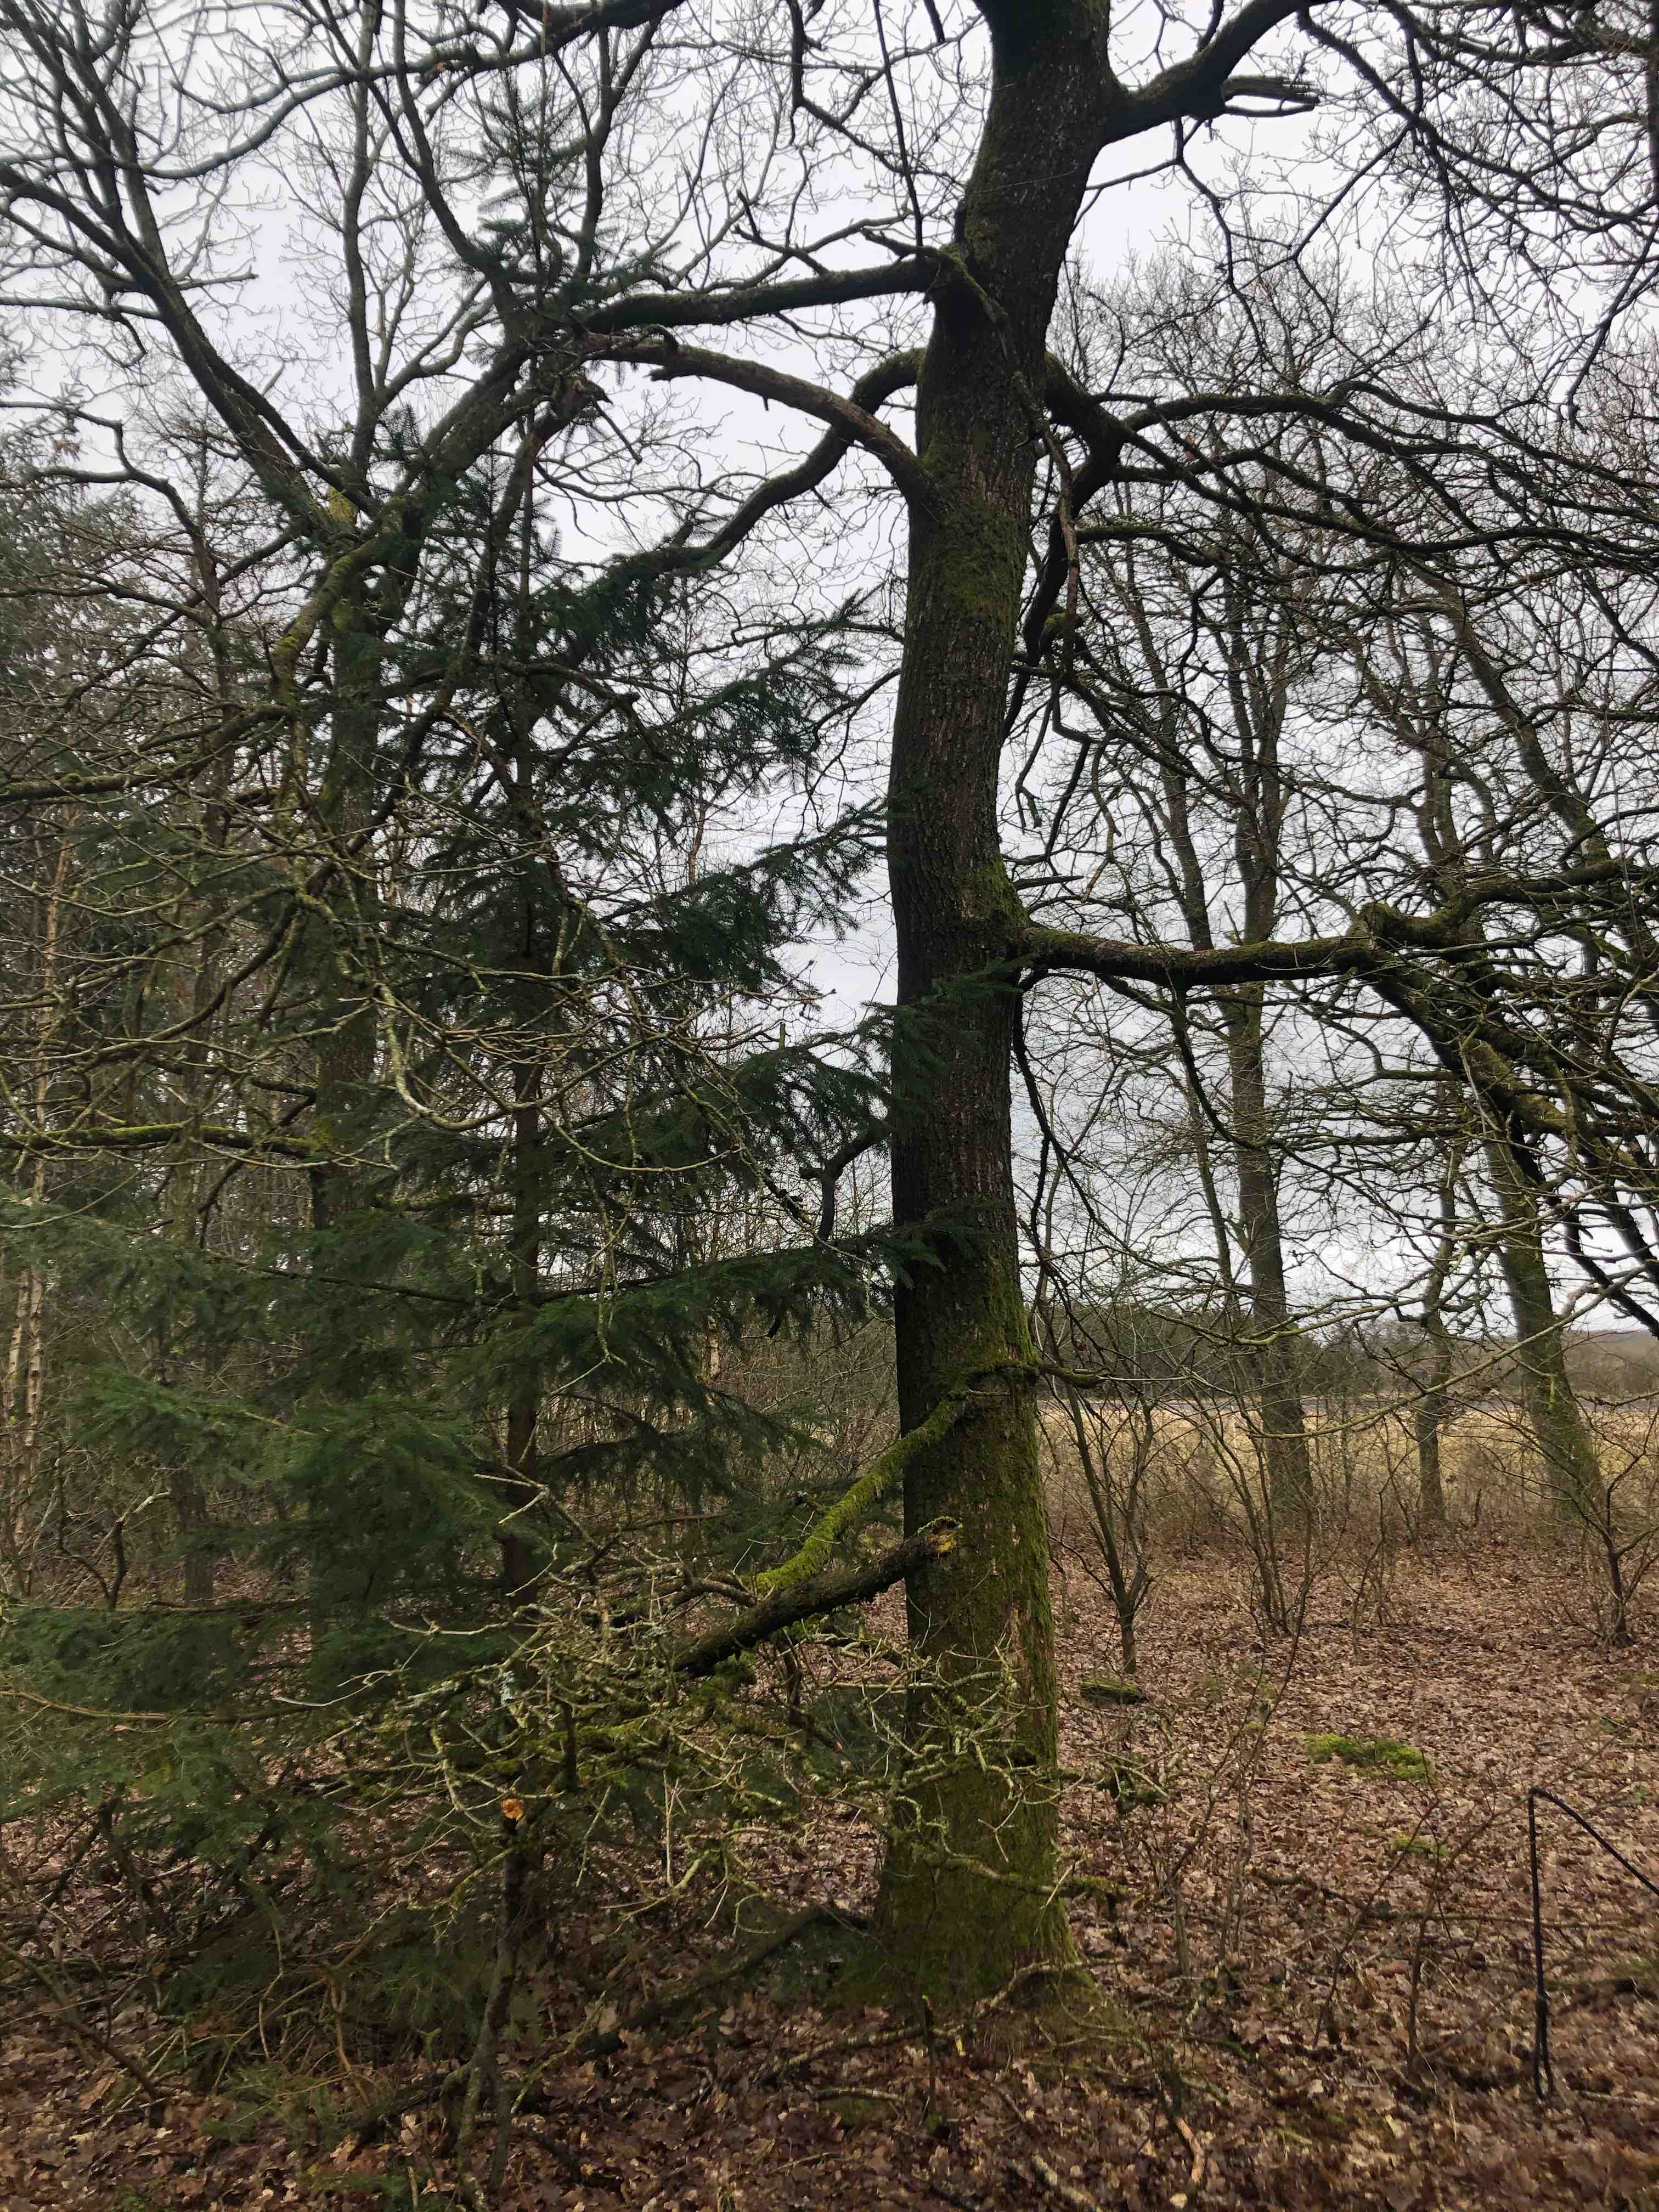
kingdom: Fungi
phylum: Basidiomycota
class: Agaricomycetes
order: Auriculariales
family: Auriculariaceae
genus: Exidia
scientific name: Exidia glandulosa
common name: ege-bævretop
